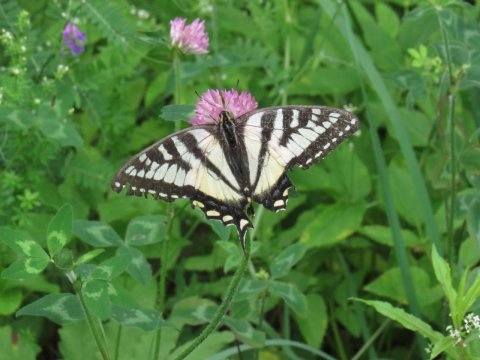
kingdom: Animalia
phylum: Arthropoda
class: Insecta
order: Lepidoptera
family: Papilionidae
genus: Pterourus
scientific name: Pterourus
